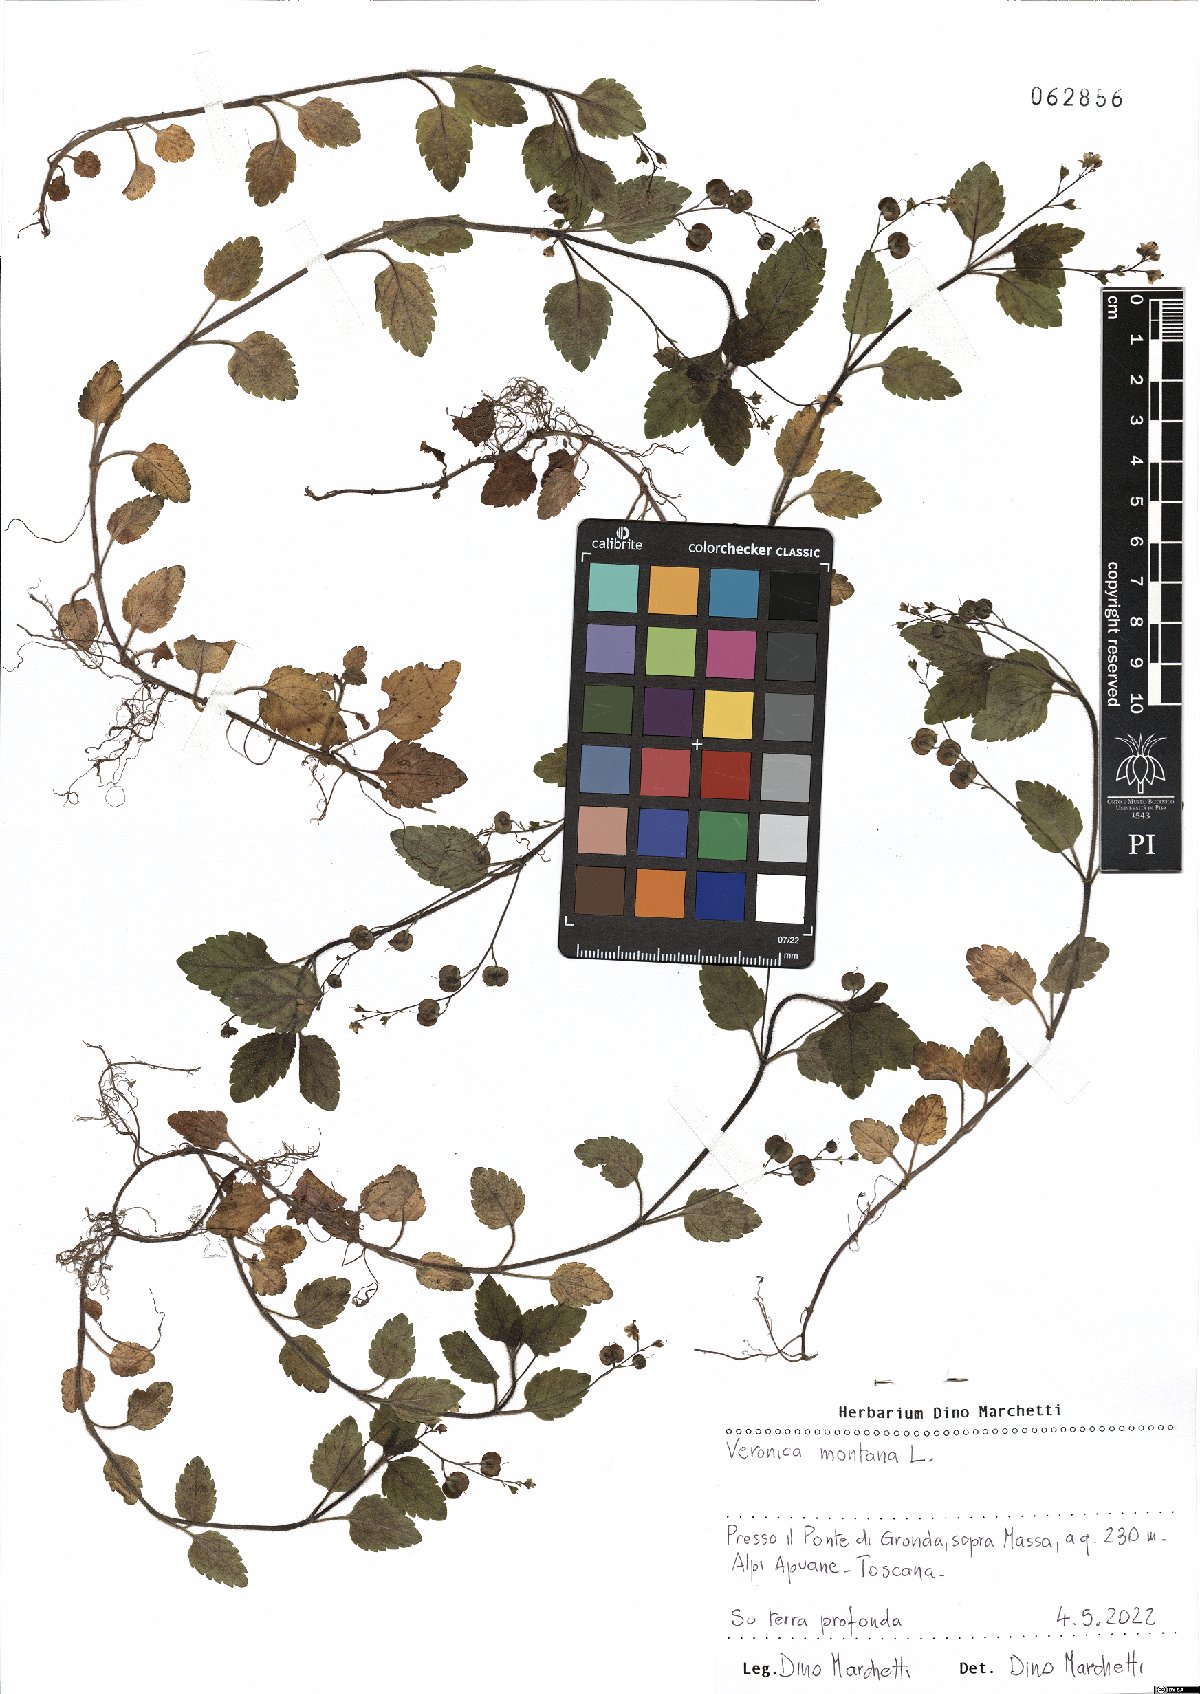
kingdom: Plantae
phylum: Tracheophyta
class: Magnoliopsida
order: Lamiales
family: Plantaginaceae
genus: Veronica
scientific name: Veronica montana
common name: Wood speedwell
